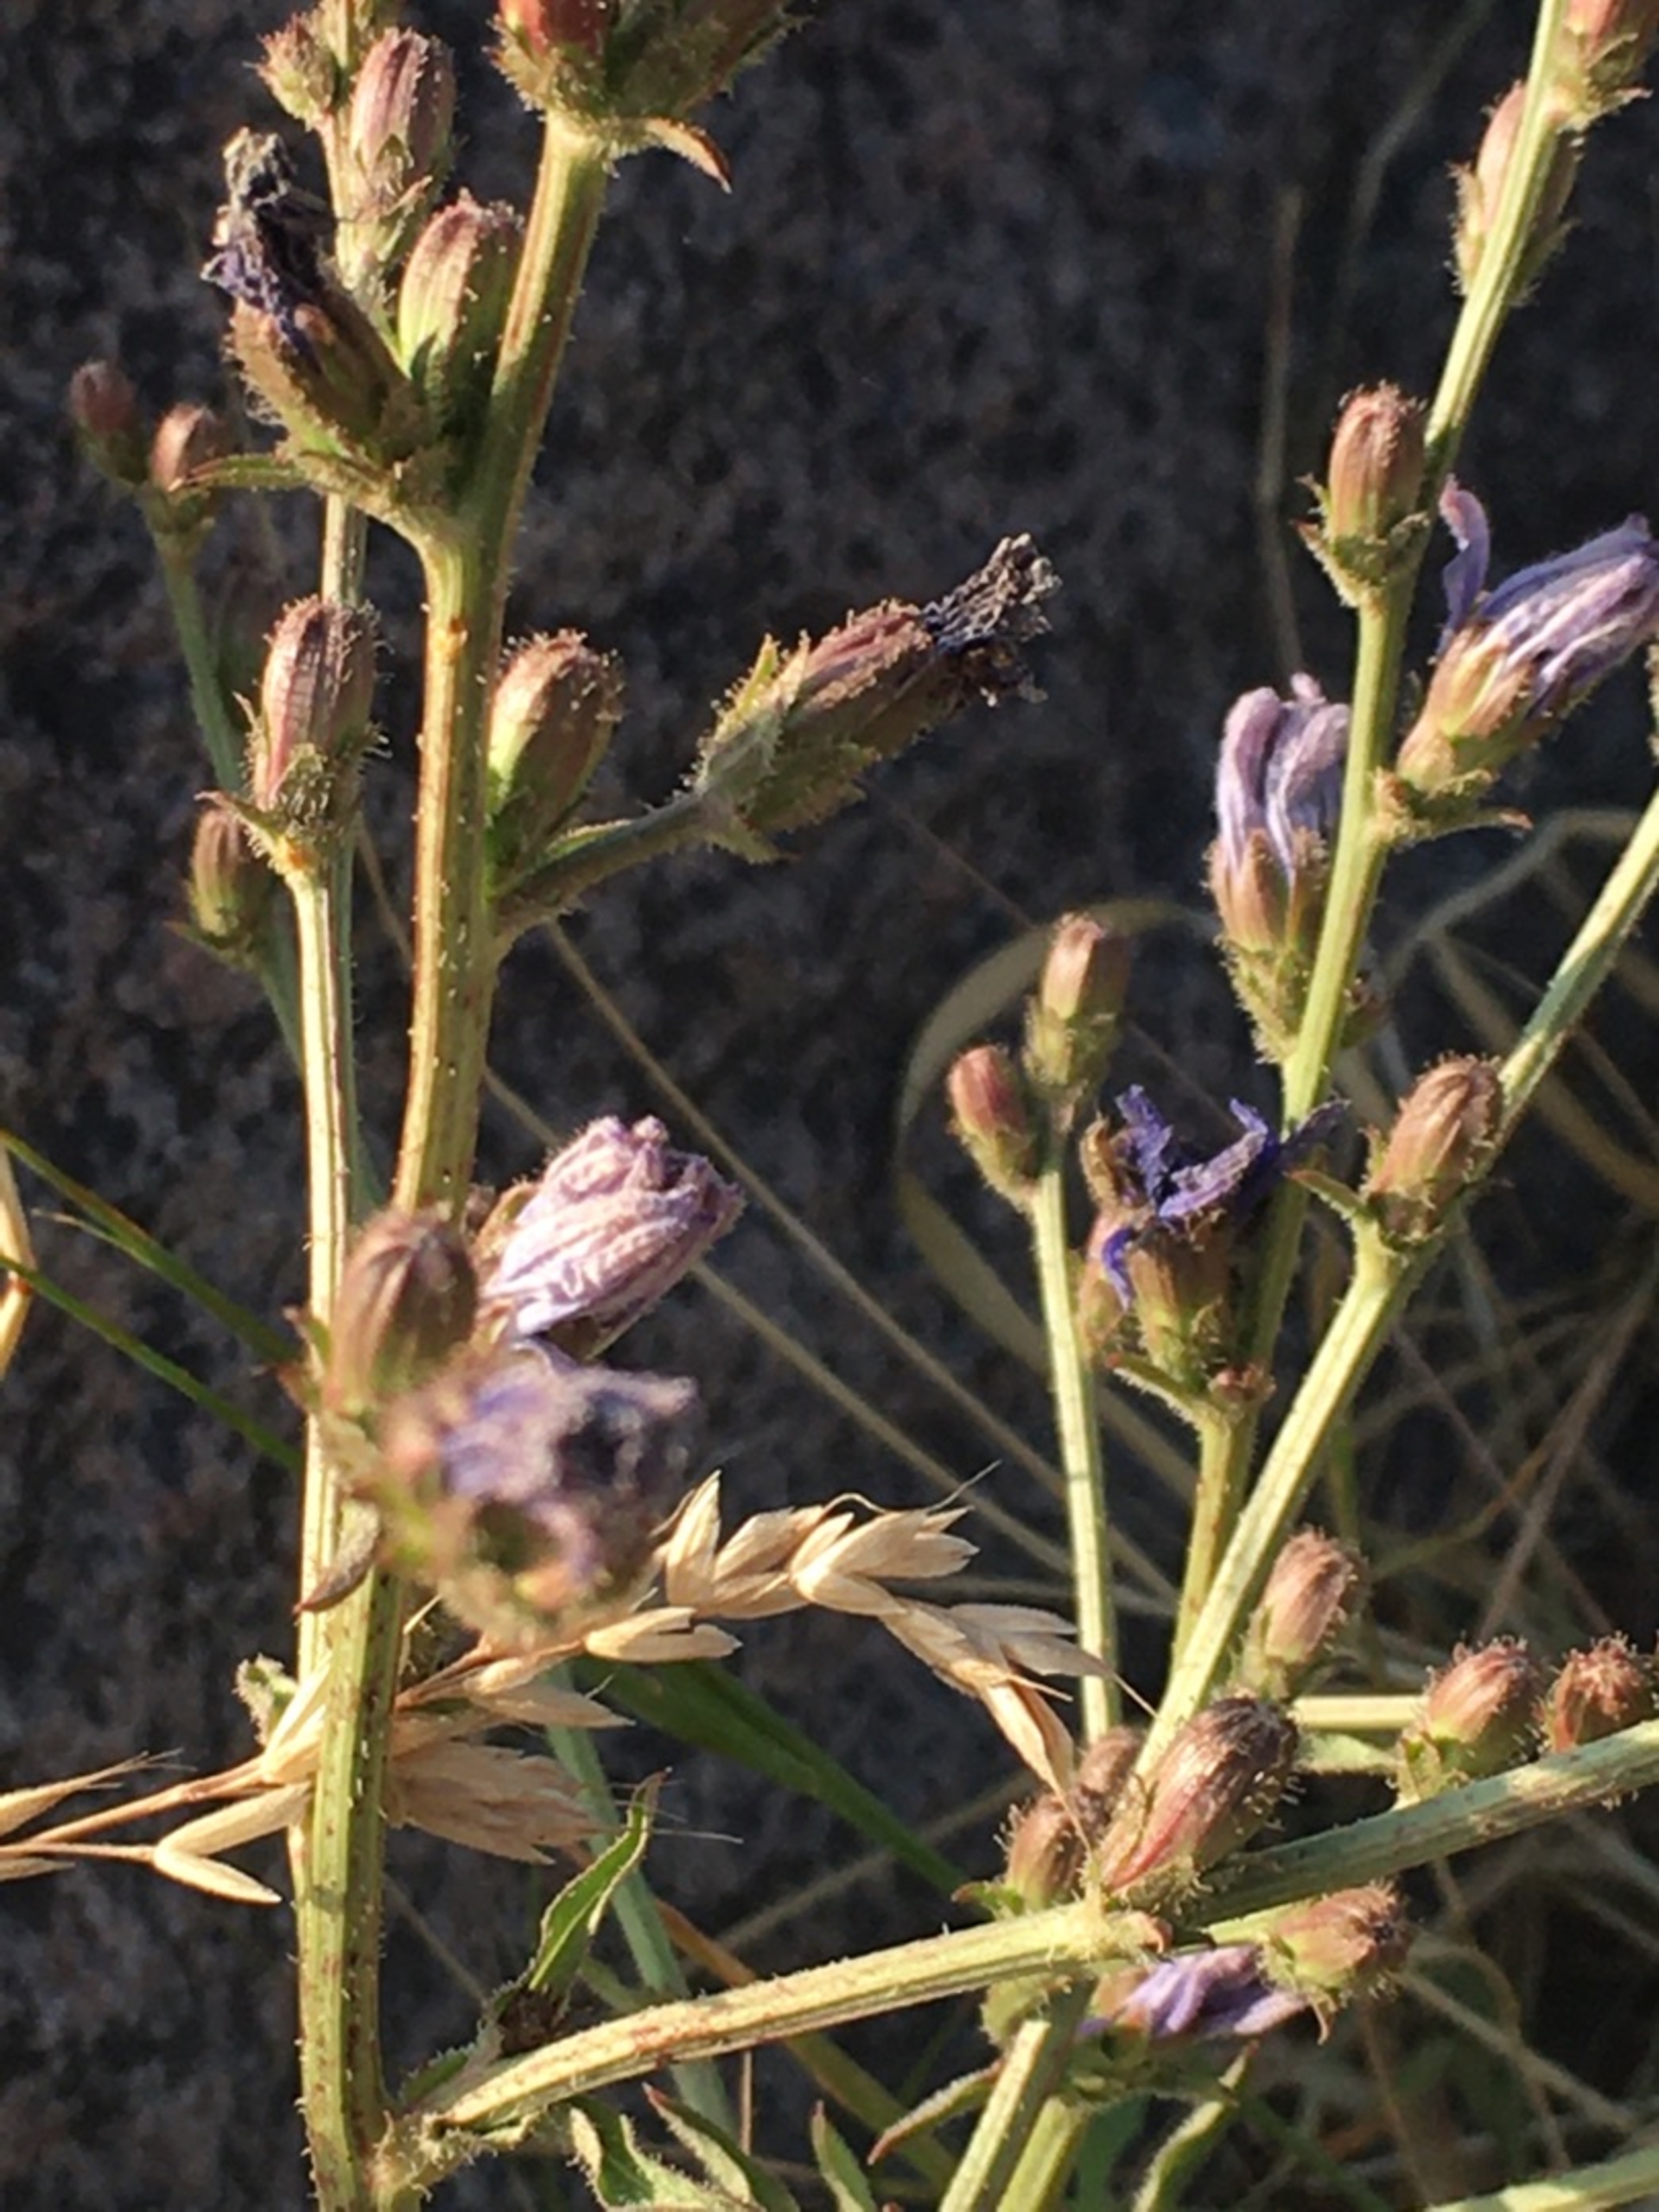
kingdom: Plantae
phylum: Tracheophyta
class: Magnoliopsida
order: Asterales
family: Asteraceae
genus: Cichorium
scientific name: Cichorium intybus
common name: Cikorie
